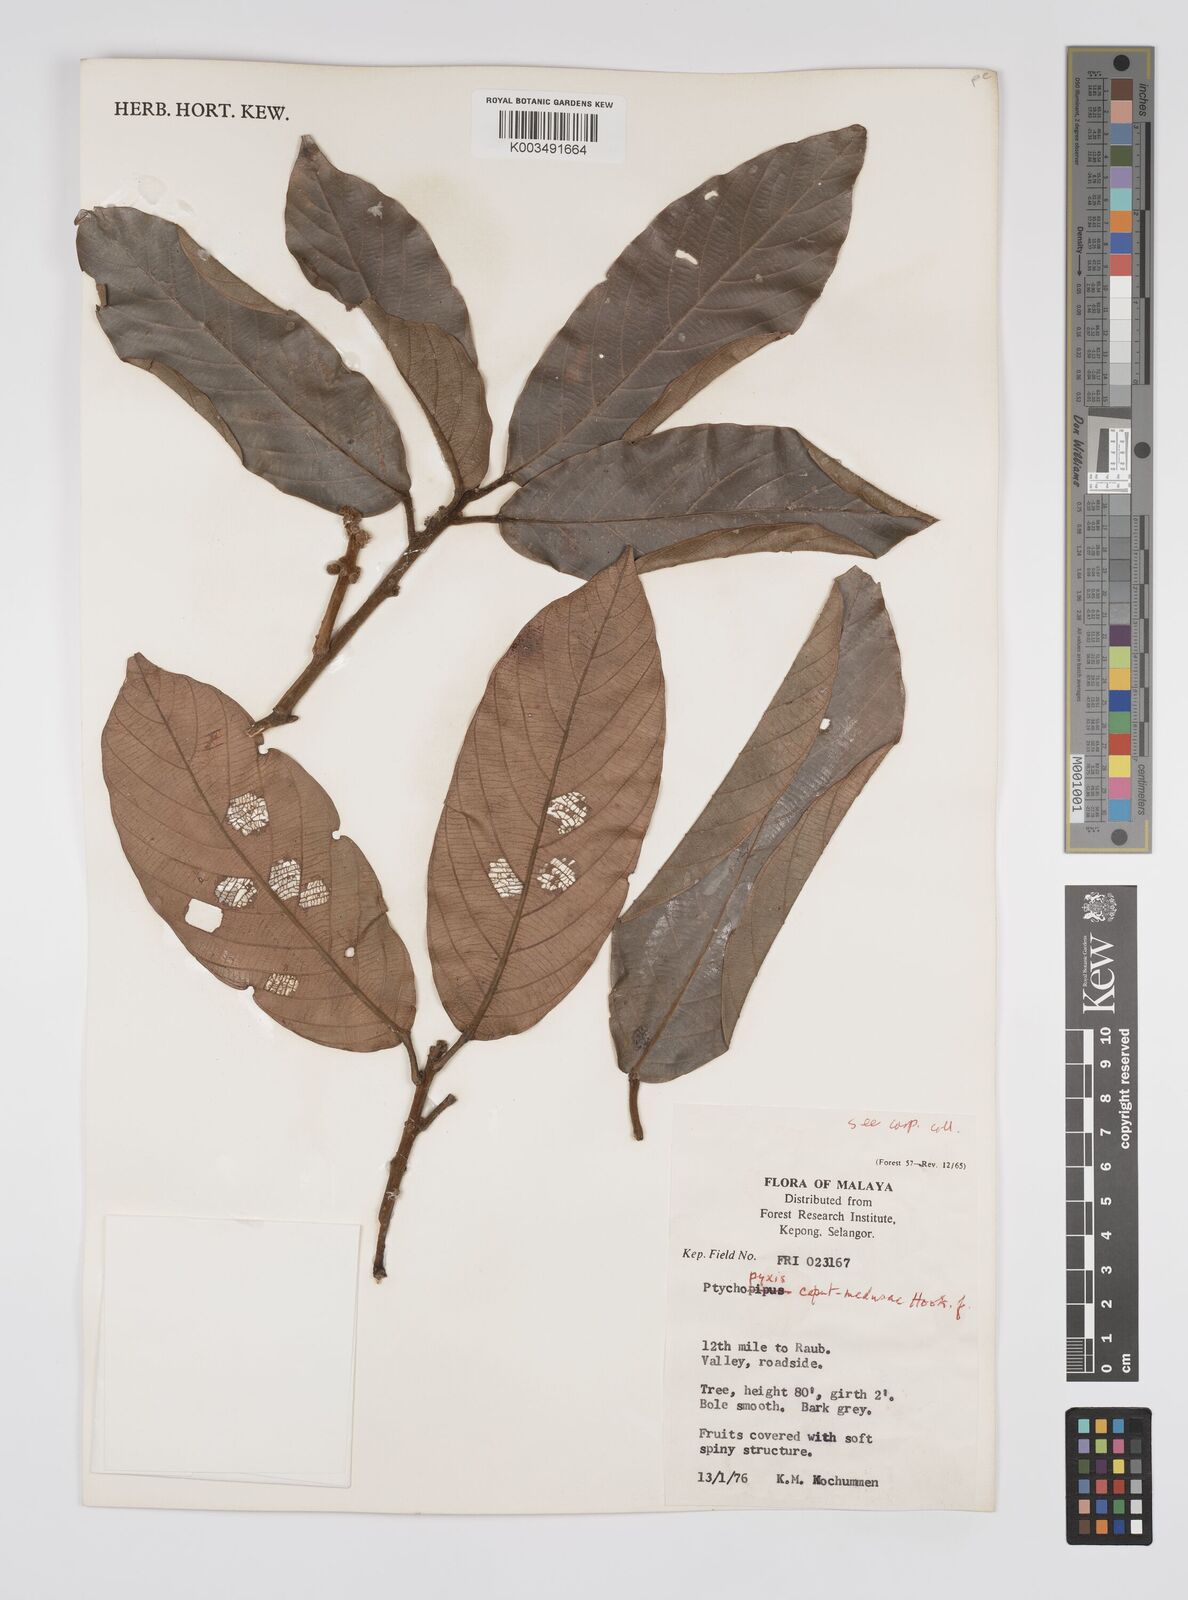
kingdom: Plantae
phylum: Tracheophyta
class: Magnoliopsida
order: Malpighiales
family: Euphorbiaceae
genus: Ptychopyxis
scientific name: Ptychopyxis caput-medusae
